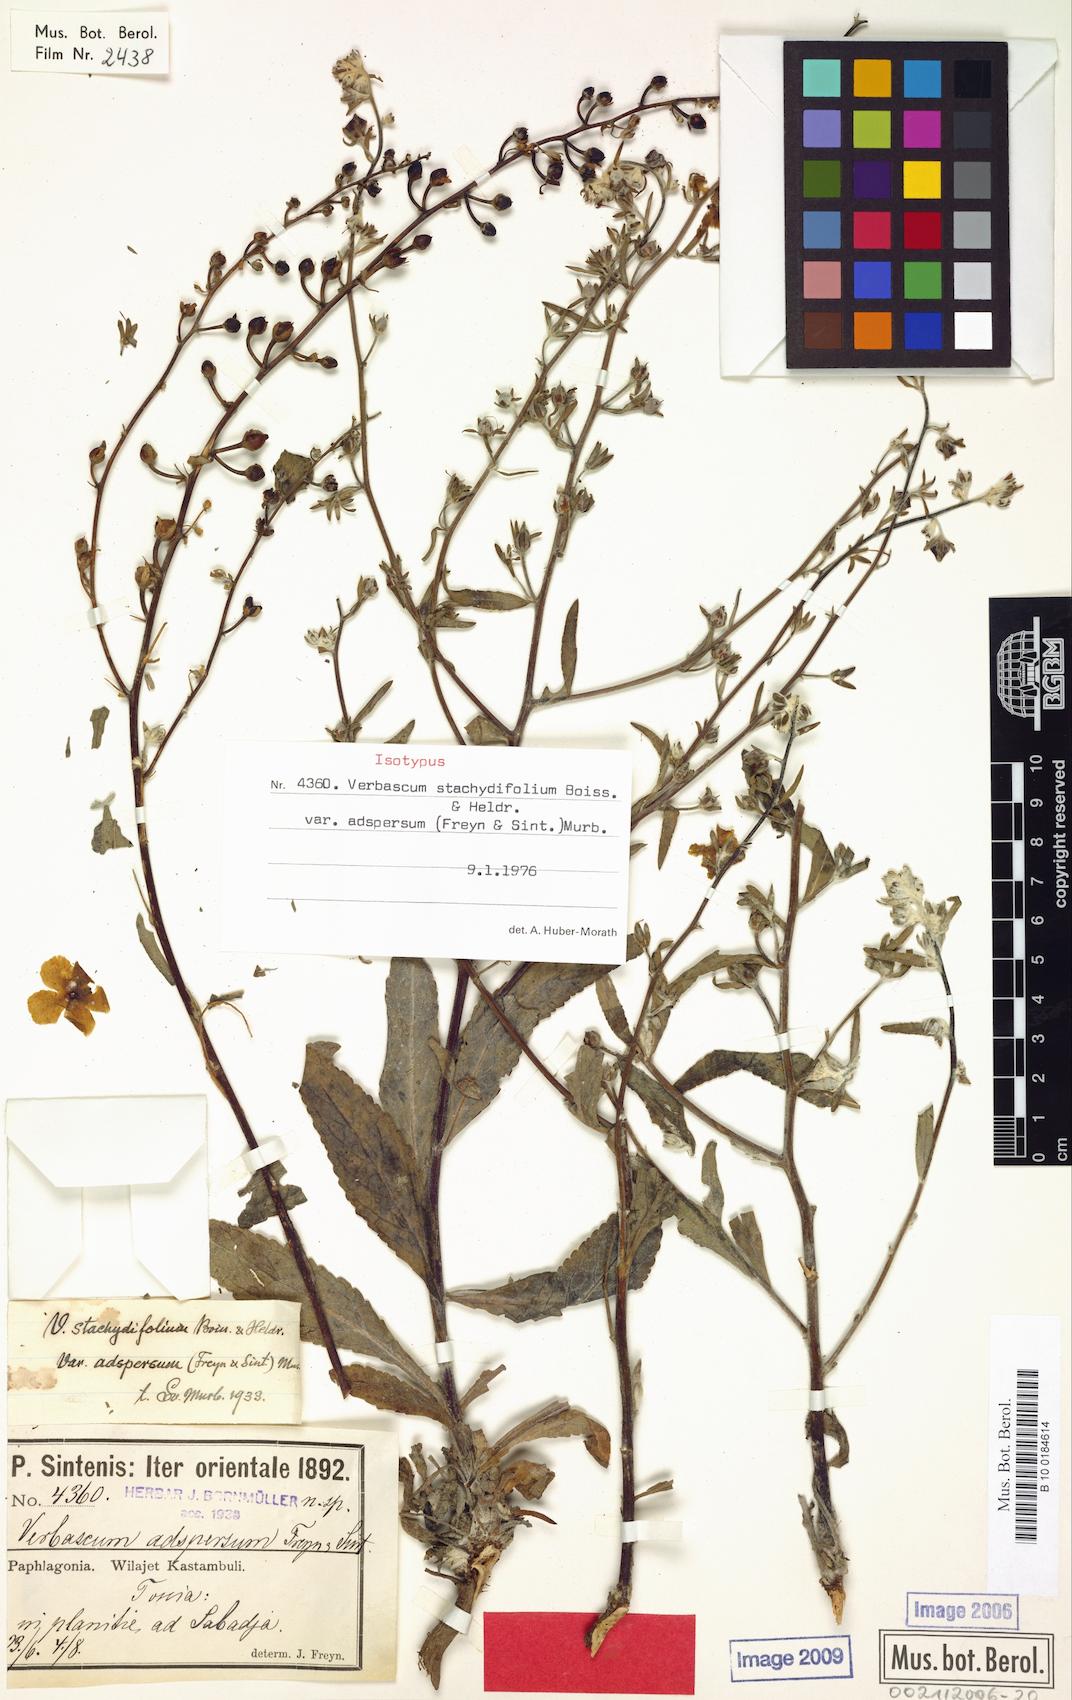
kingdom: Plantae
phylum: Tracheophyta
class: Magnoliopsida
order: Lamiales
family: Scrophulariaceae
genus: Verbascum
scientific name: Verbascum stachydifolium
